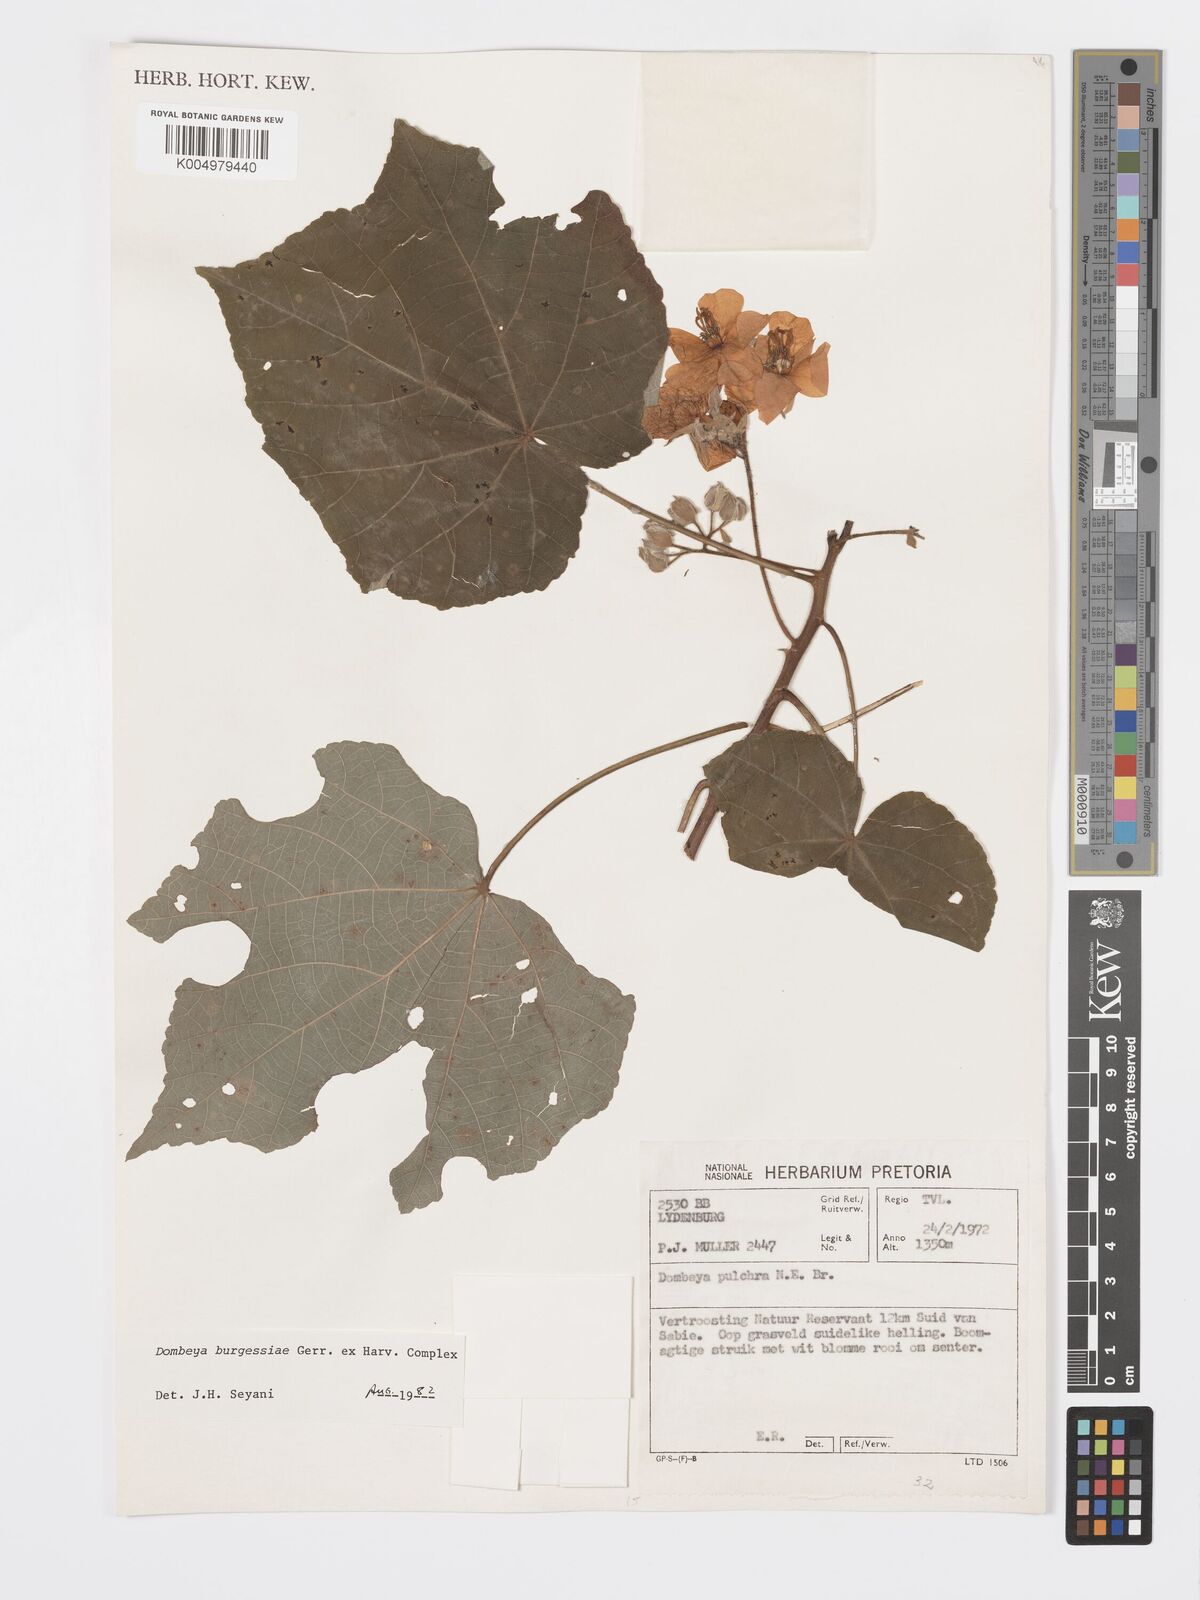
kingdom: Plantae
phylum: Tracheophyta
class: Magnoliopsida
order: Malvales
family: Malvaceae
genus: Dombeya
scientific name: Dombeya burgessiae
